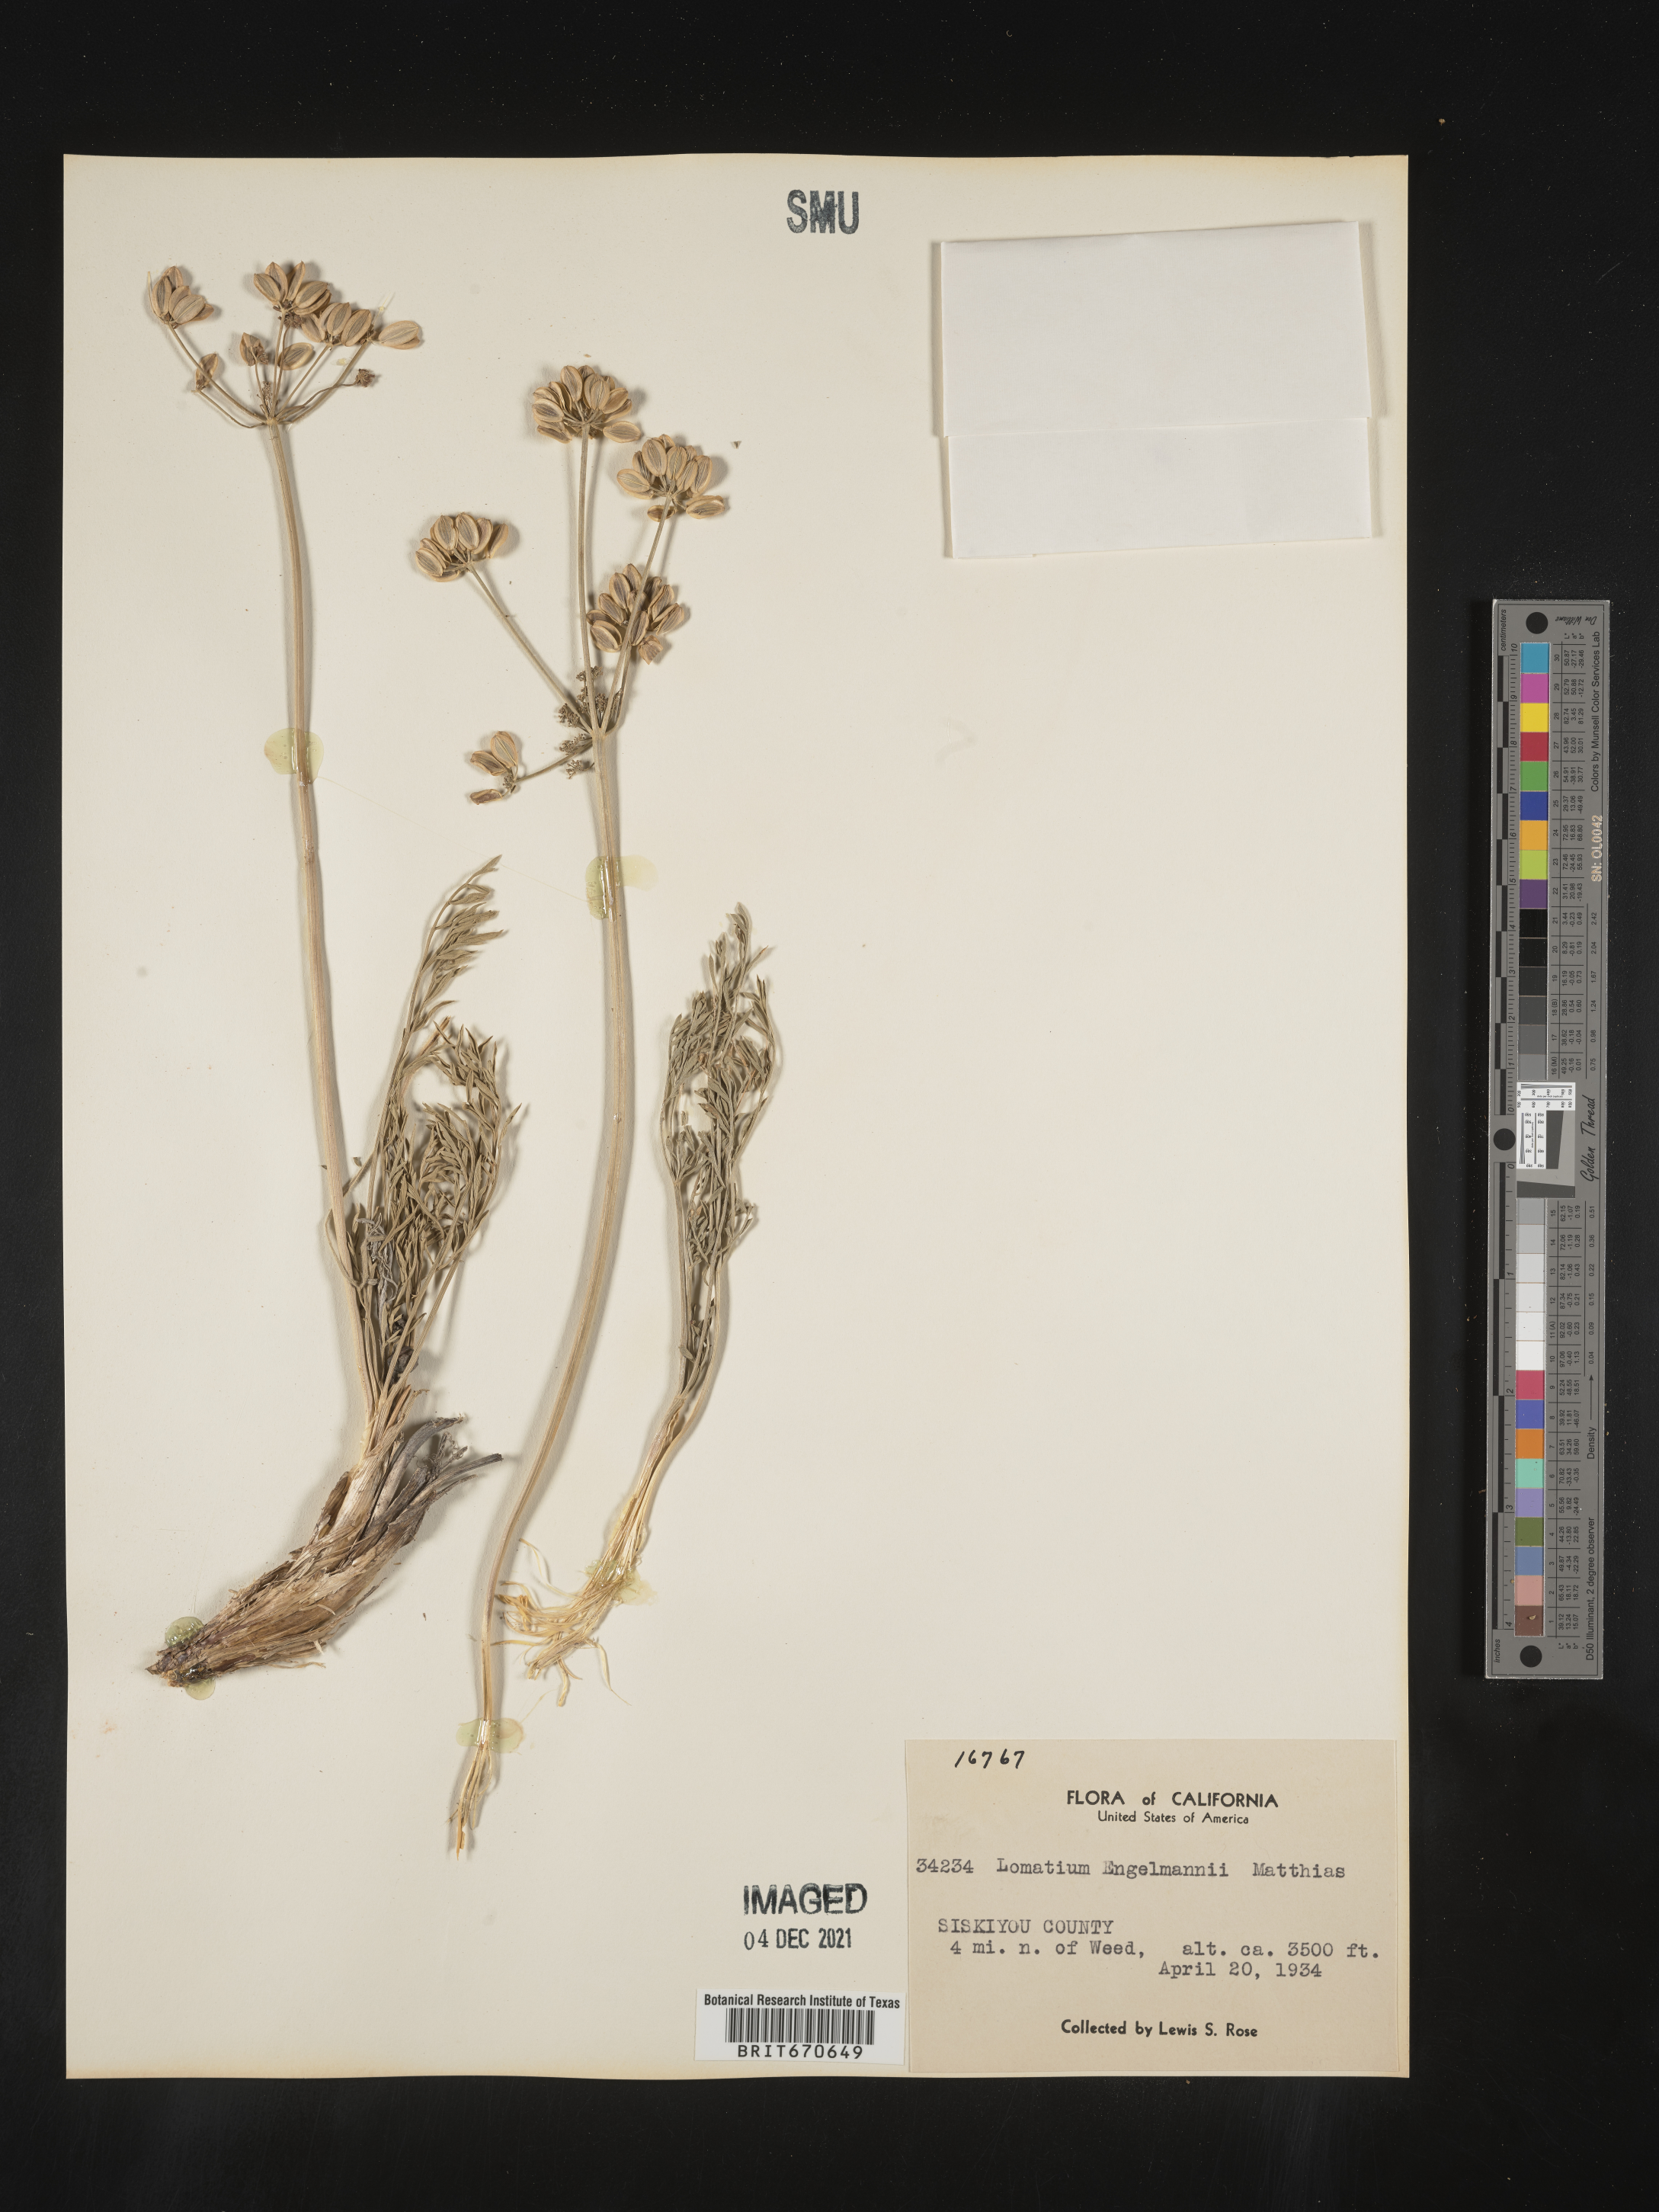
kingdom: Plantae
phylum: Tracheophyta
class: Magnoliopsida
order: Apiales
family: Apiaceae
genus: Lomatium
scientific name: Lomatium
